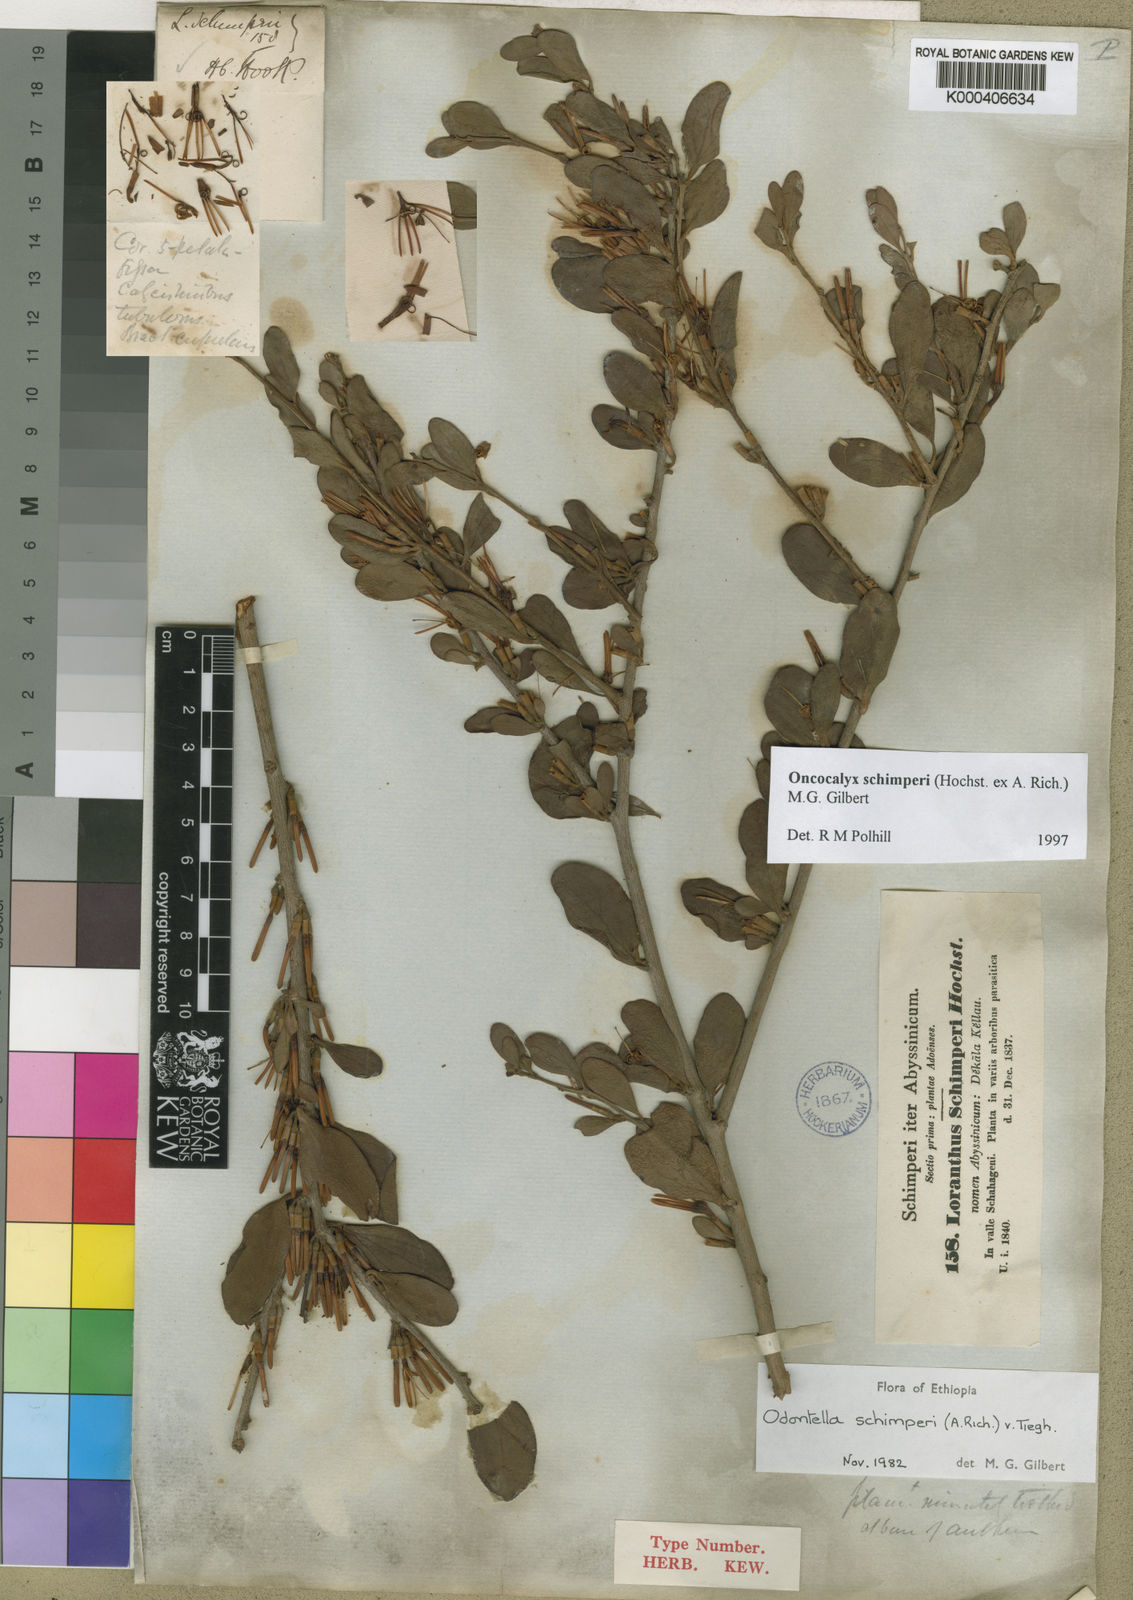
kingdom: Plantae
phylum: Tracheophyta
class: Magnoliopsida
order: Santalales
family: Loranthaceae
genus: Loranthella
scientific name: Loranthella
